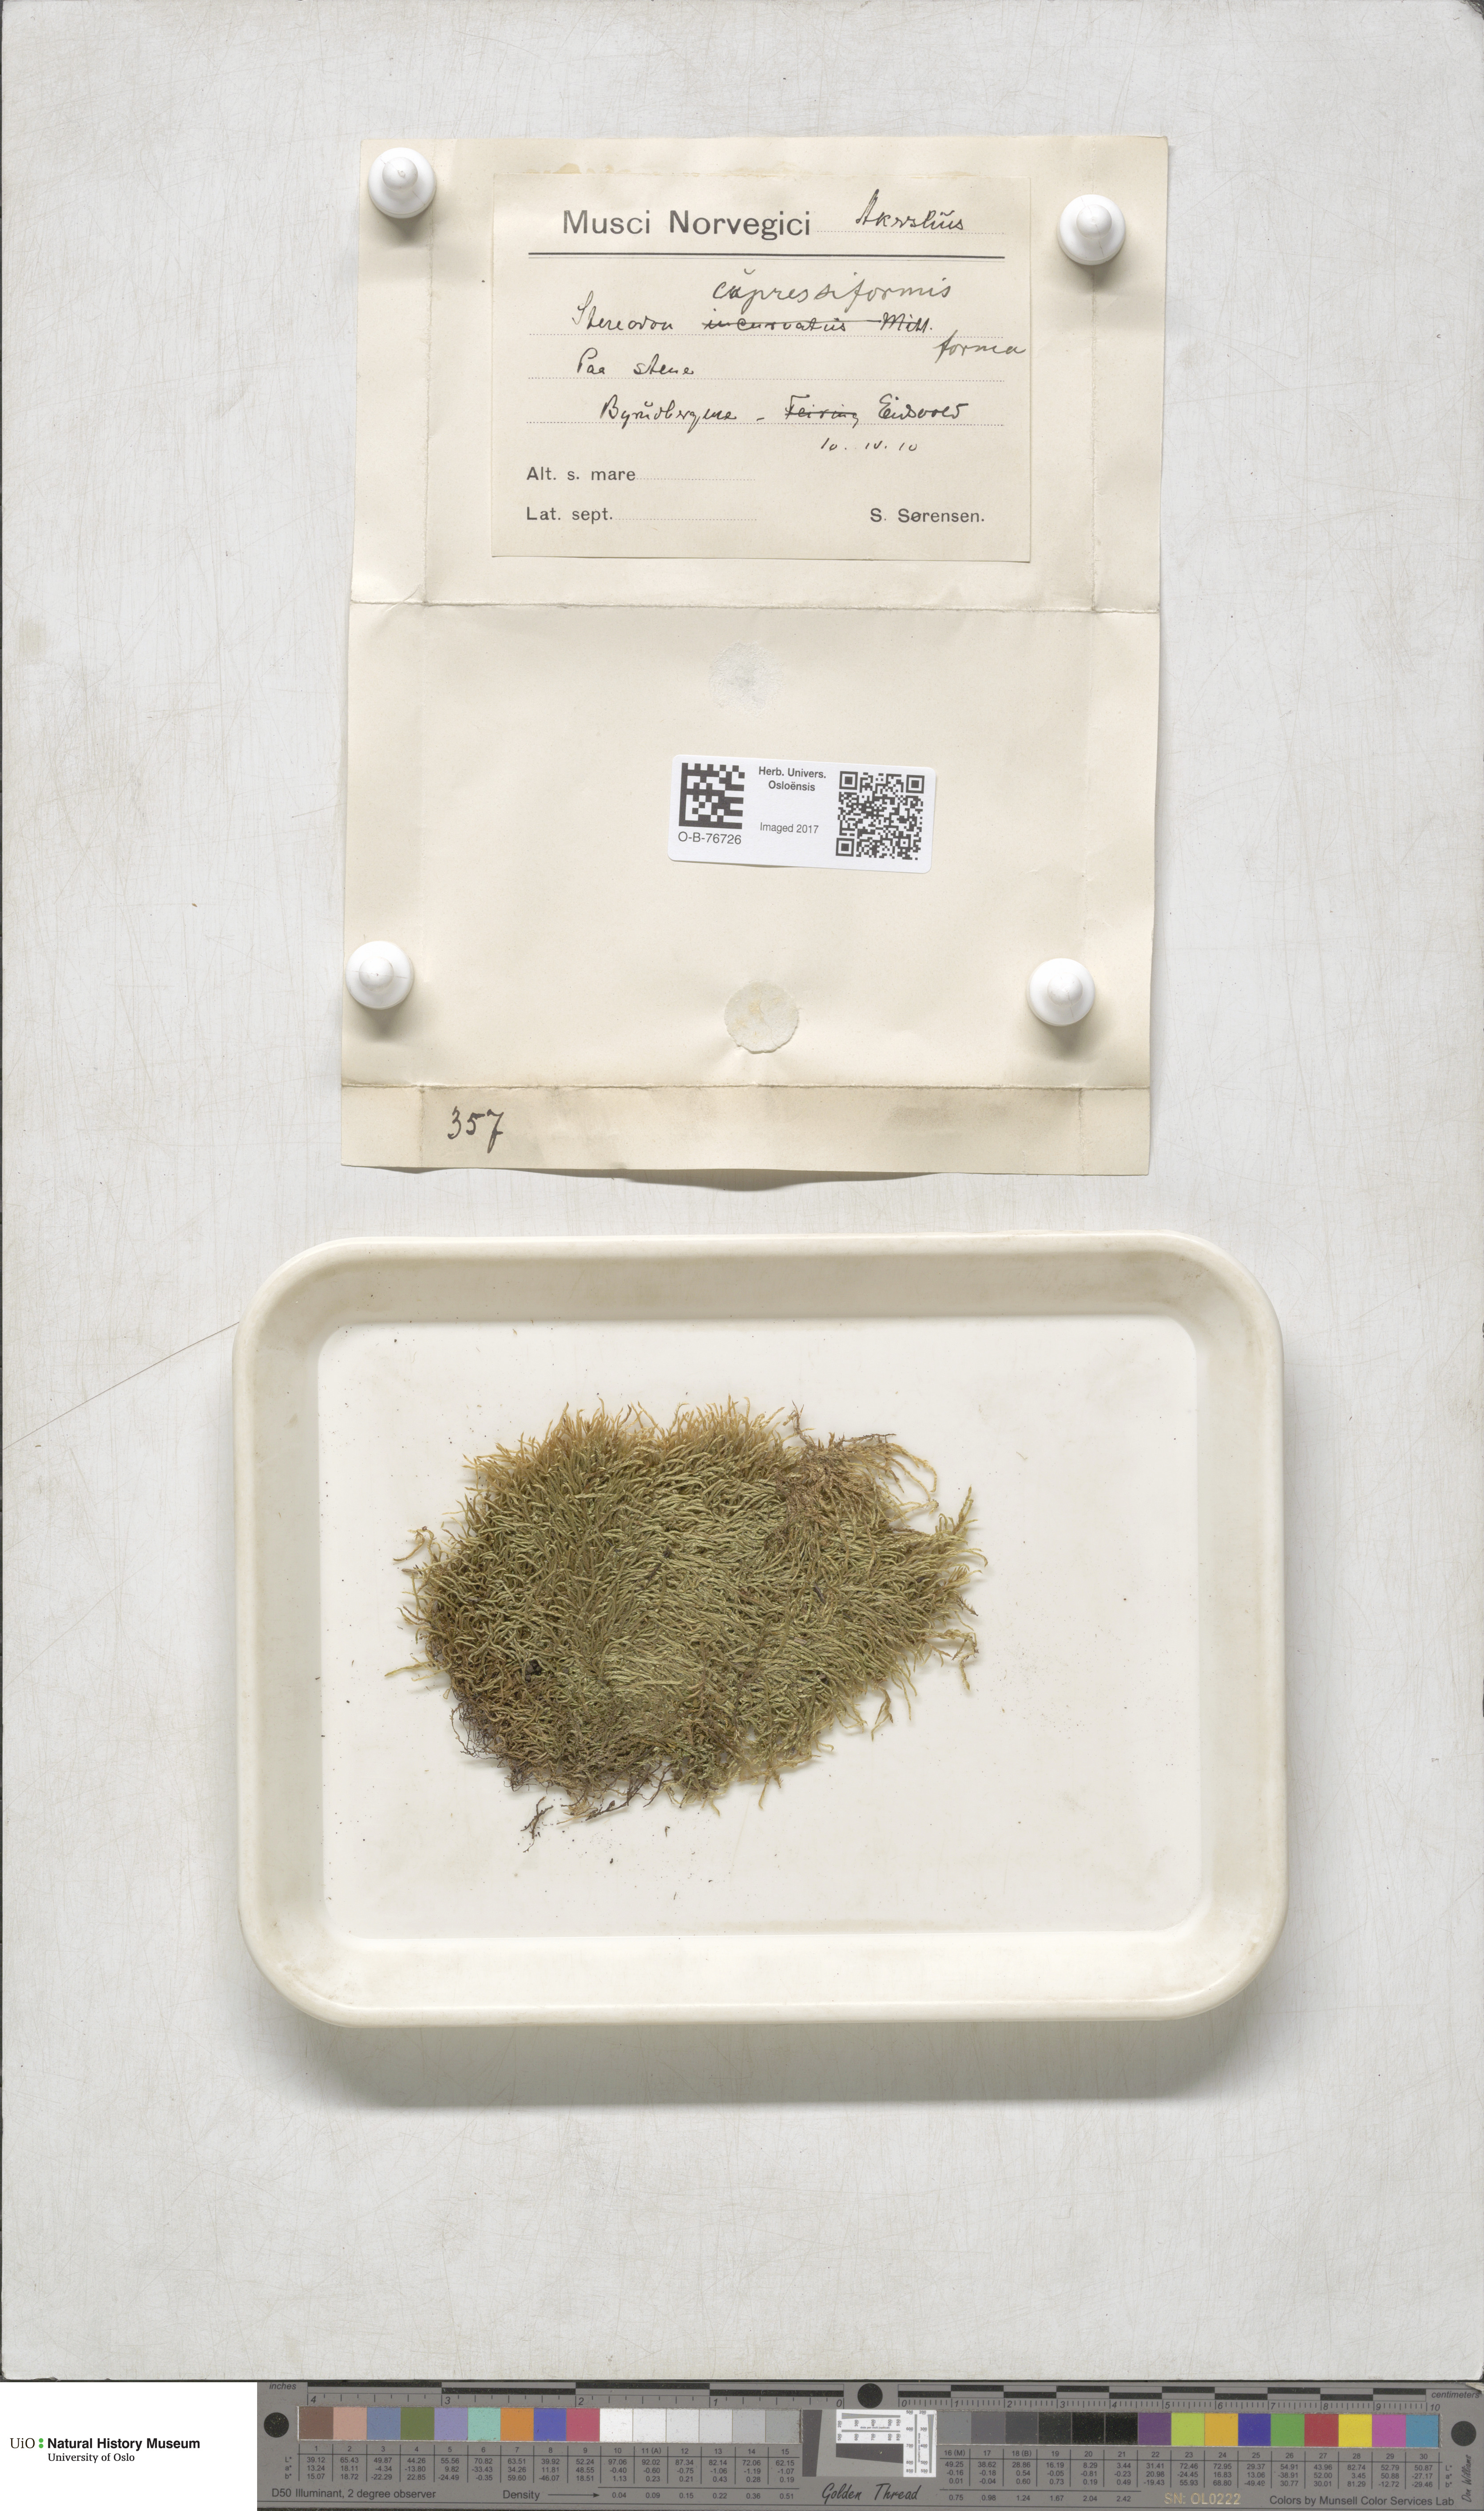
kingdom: Plantae
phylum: Bryophyta
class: Bryopsida
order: Hypnales
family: Hypnaceae
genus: Hypnum
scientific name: Hypnum cupressiforme
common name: Cypress-leaved plait-moss
